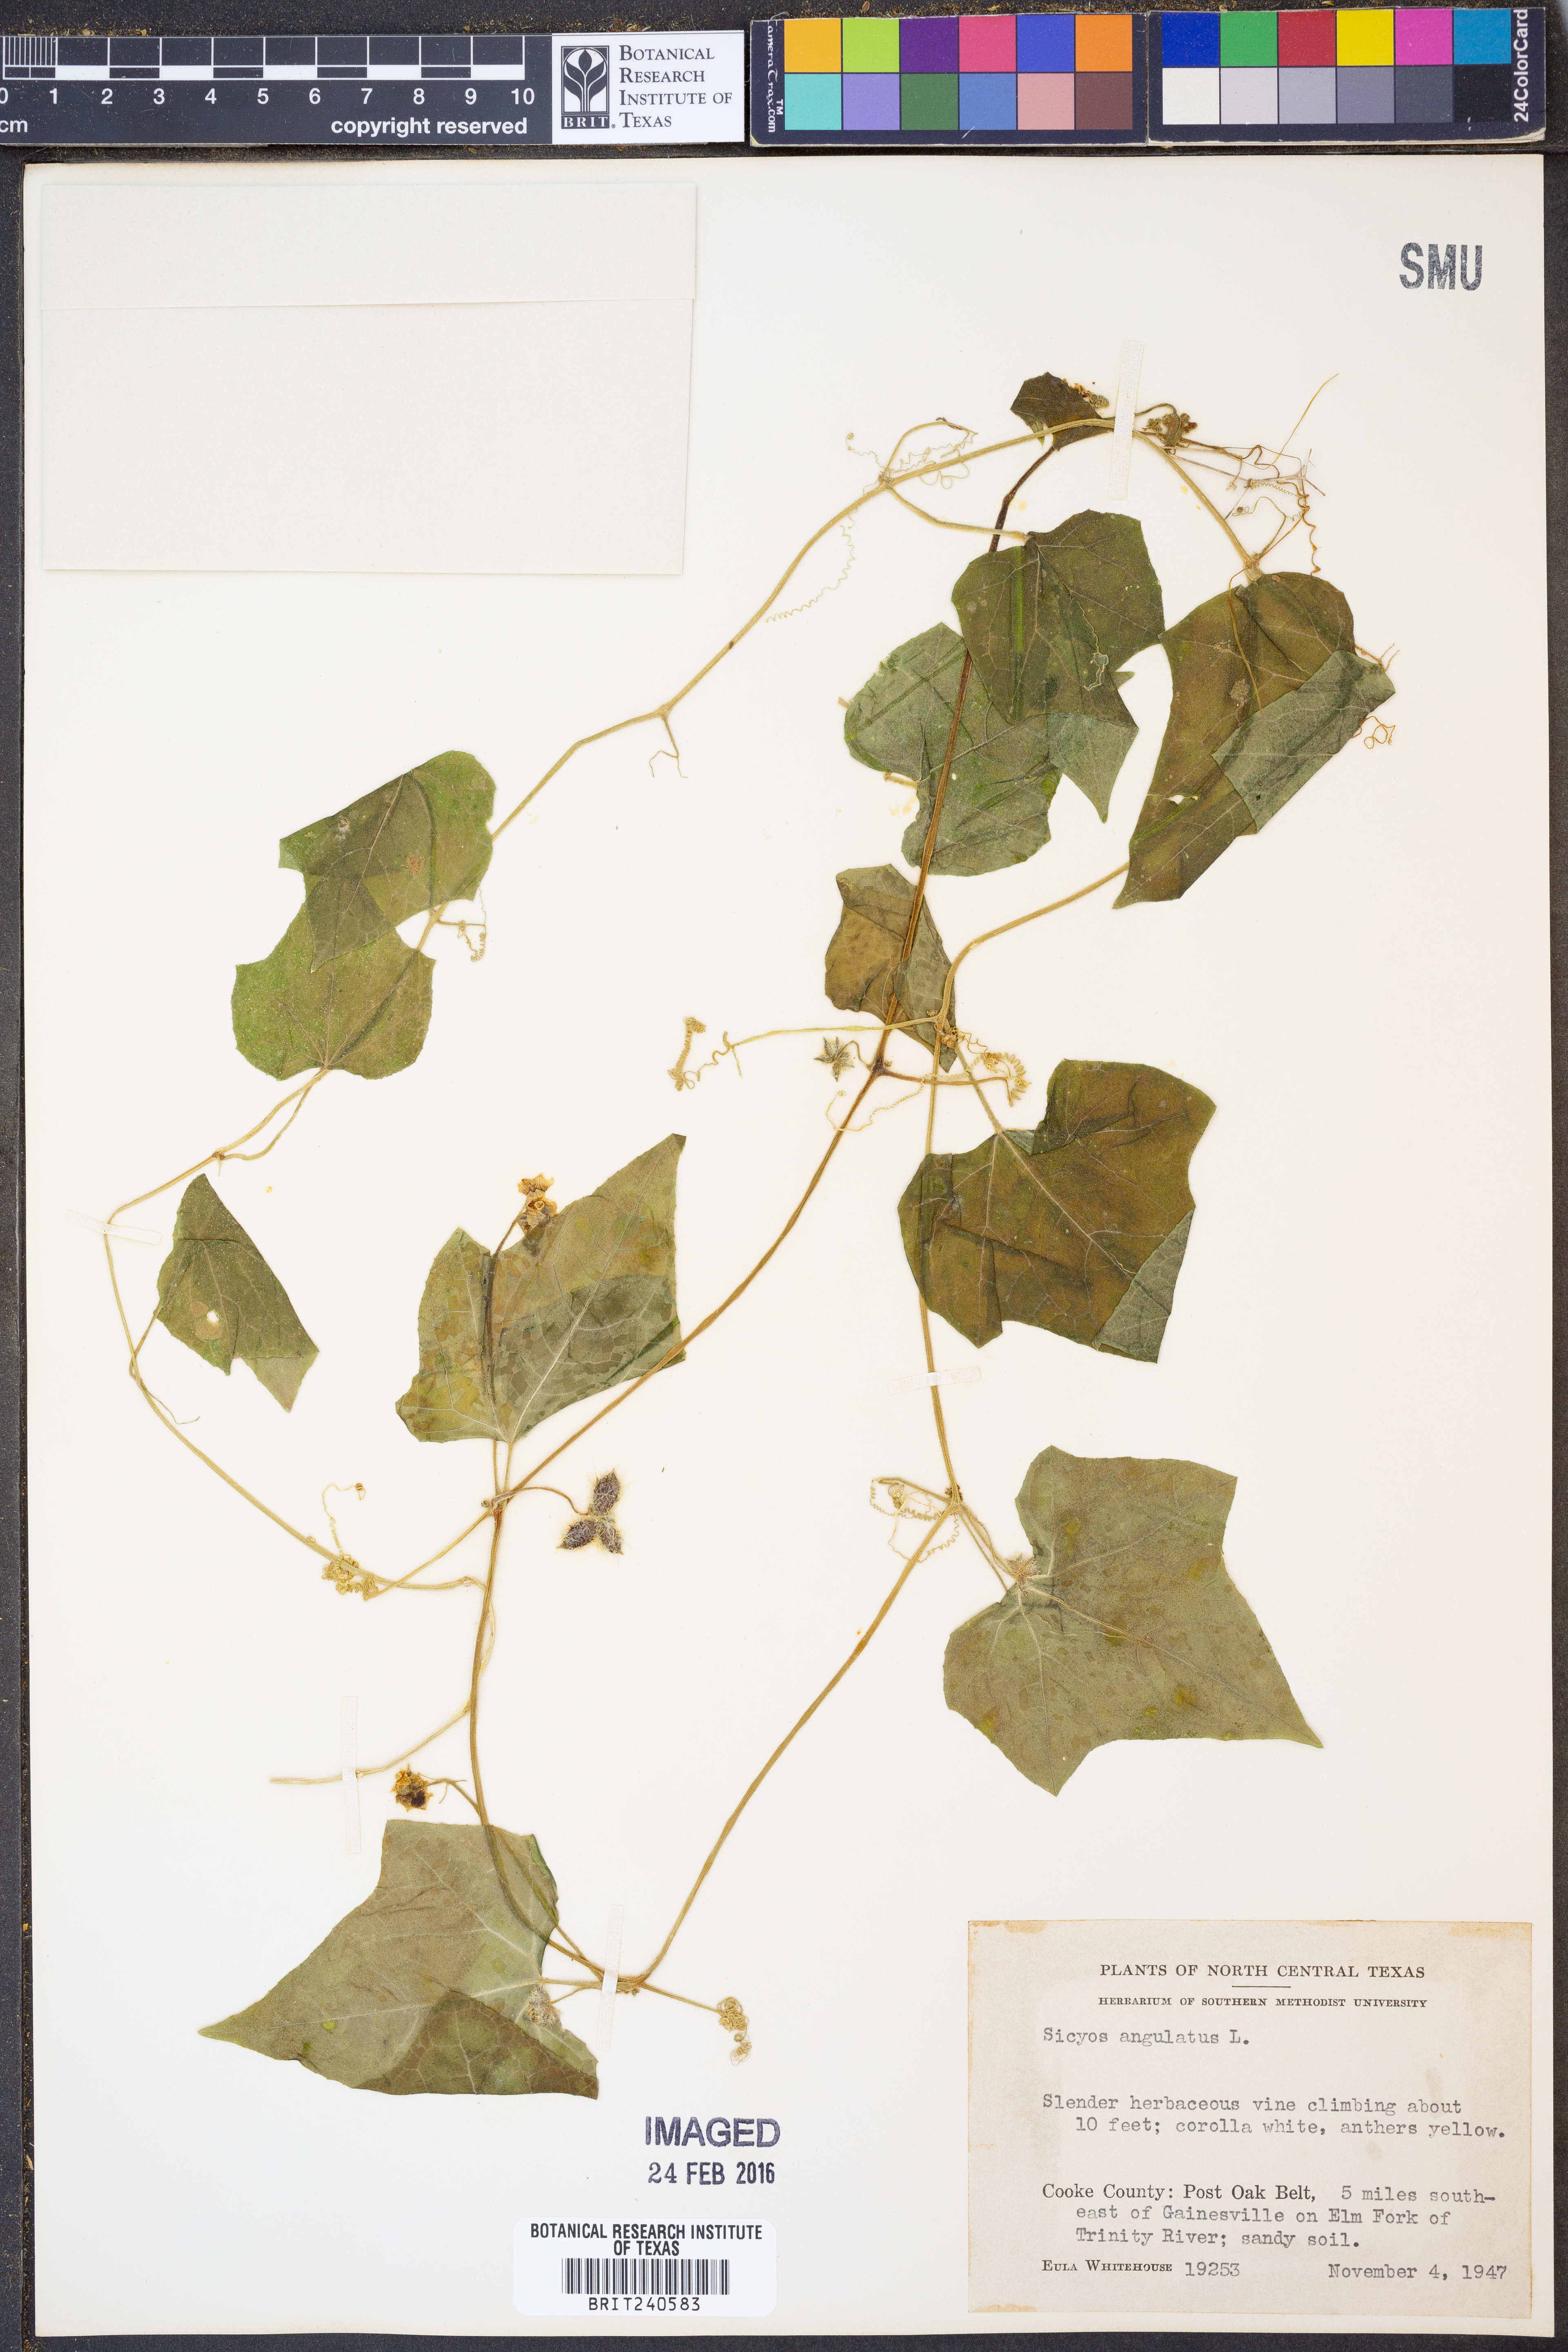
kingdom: Plantae
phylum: Tracheophyta
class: Magnoliopsida
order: Cucurbitales
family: Cucurbitaceae
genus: Sicyos
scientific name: Sicyos angulatus
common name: Angled burr cucumber
